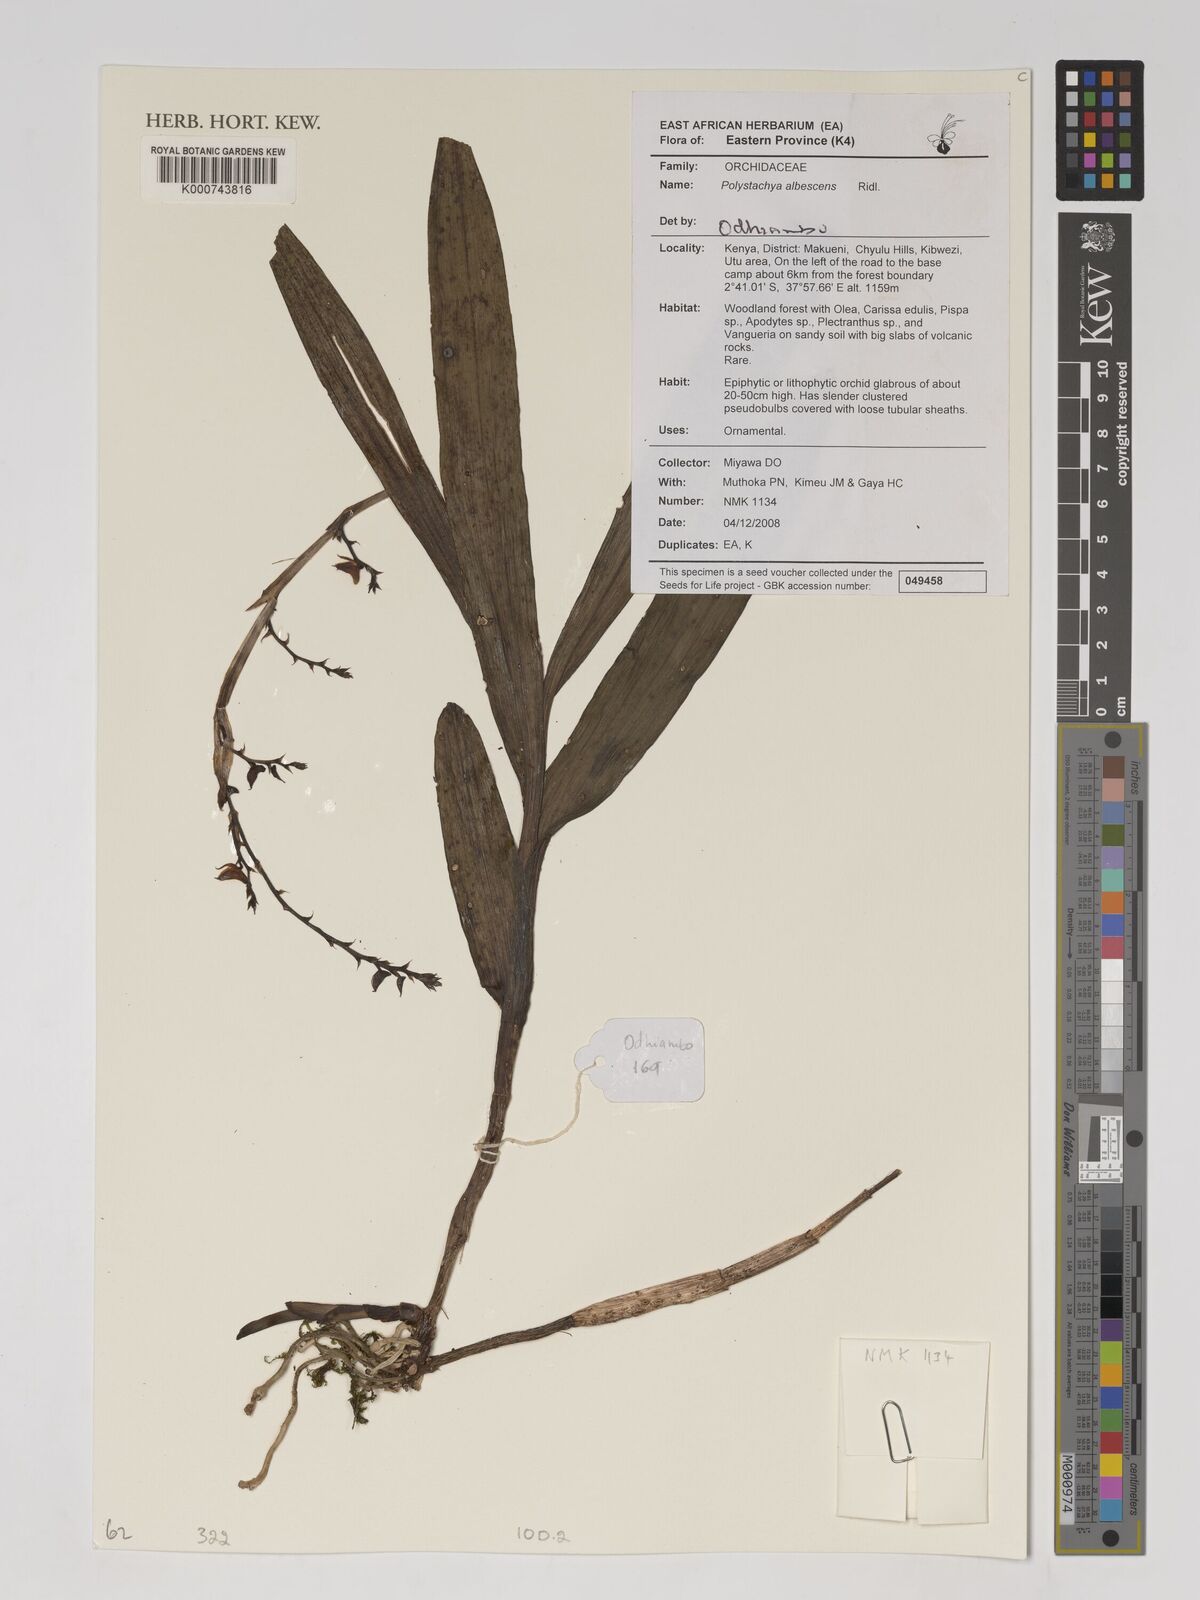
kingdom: Plantae
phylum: Tracheophyta
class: Liliopsida
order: Asparagales
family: Orchidaceae
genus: Polystachya
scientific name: Polystachya albescens
